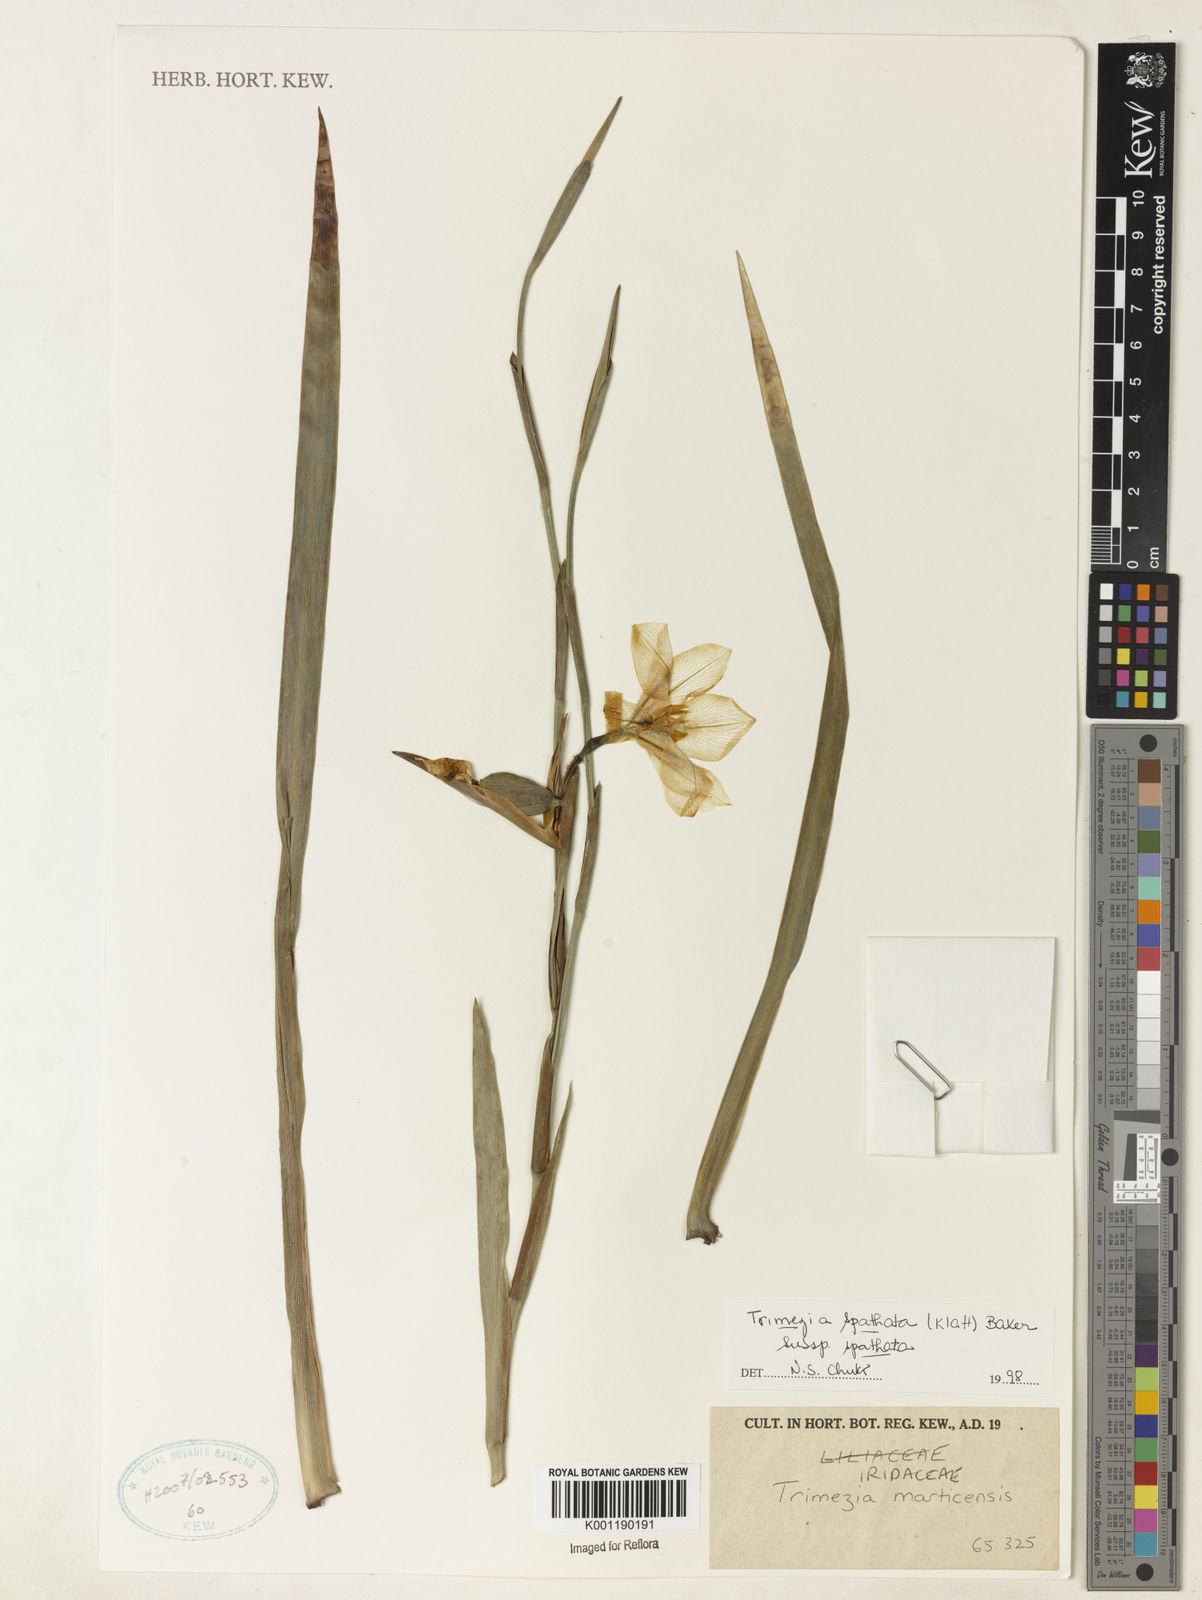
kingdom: Plantae
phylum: Tracheophyta
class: Liliopsida
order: Asparagales
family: Iridaceae
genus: Trimezia
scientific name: Trimezia spathata
